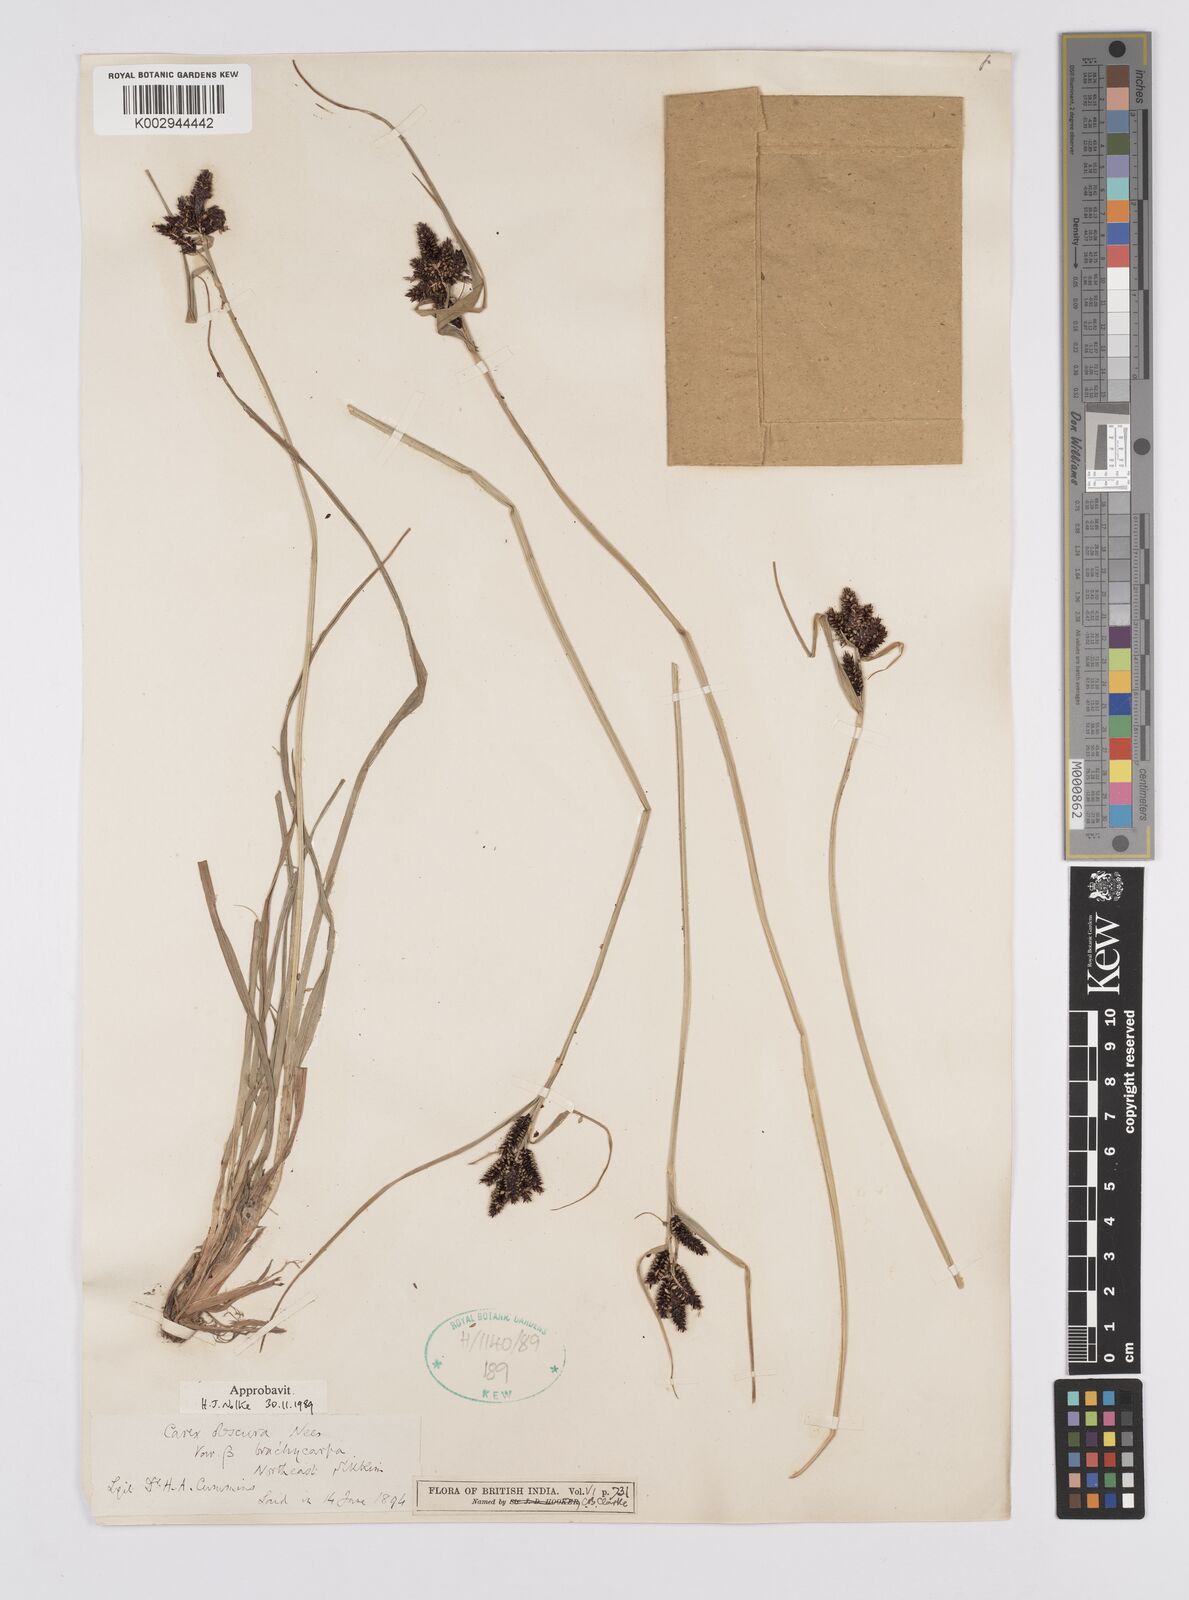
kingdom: Plantae
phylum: Tracheophyta
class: Liliopsida
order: Poales
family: Cyperaceae
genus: Carex
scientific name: Carex obscura
